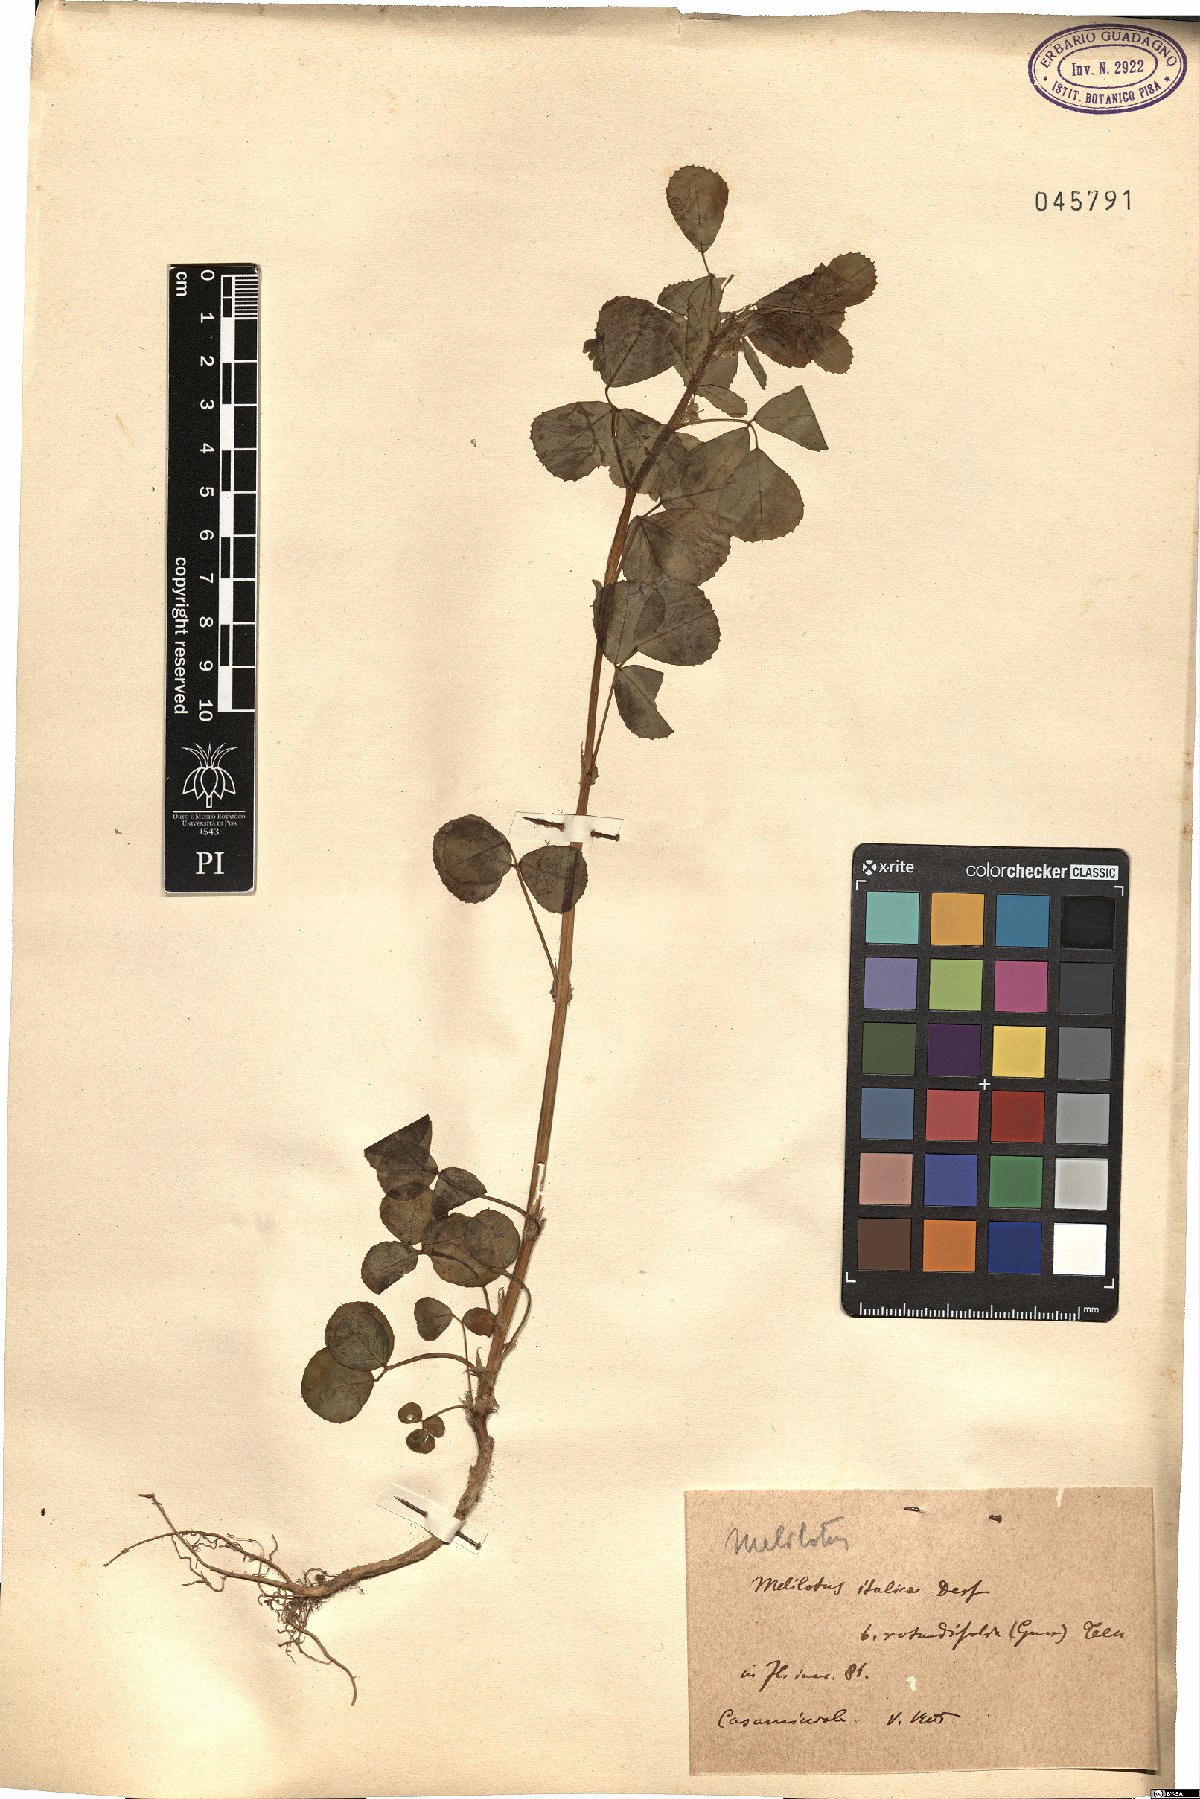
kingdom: Plantae
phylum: Tracheophyta
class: Magnoliopsida
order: Fabales
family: Fabaceae
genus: Melilotus
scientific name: Melilotus italicus
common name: Italian melilot
